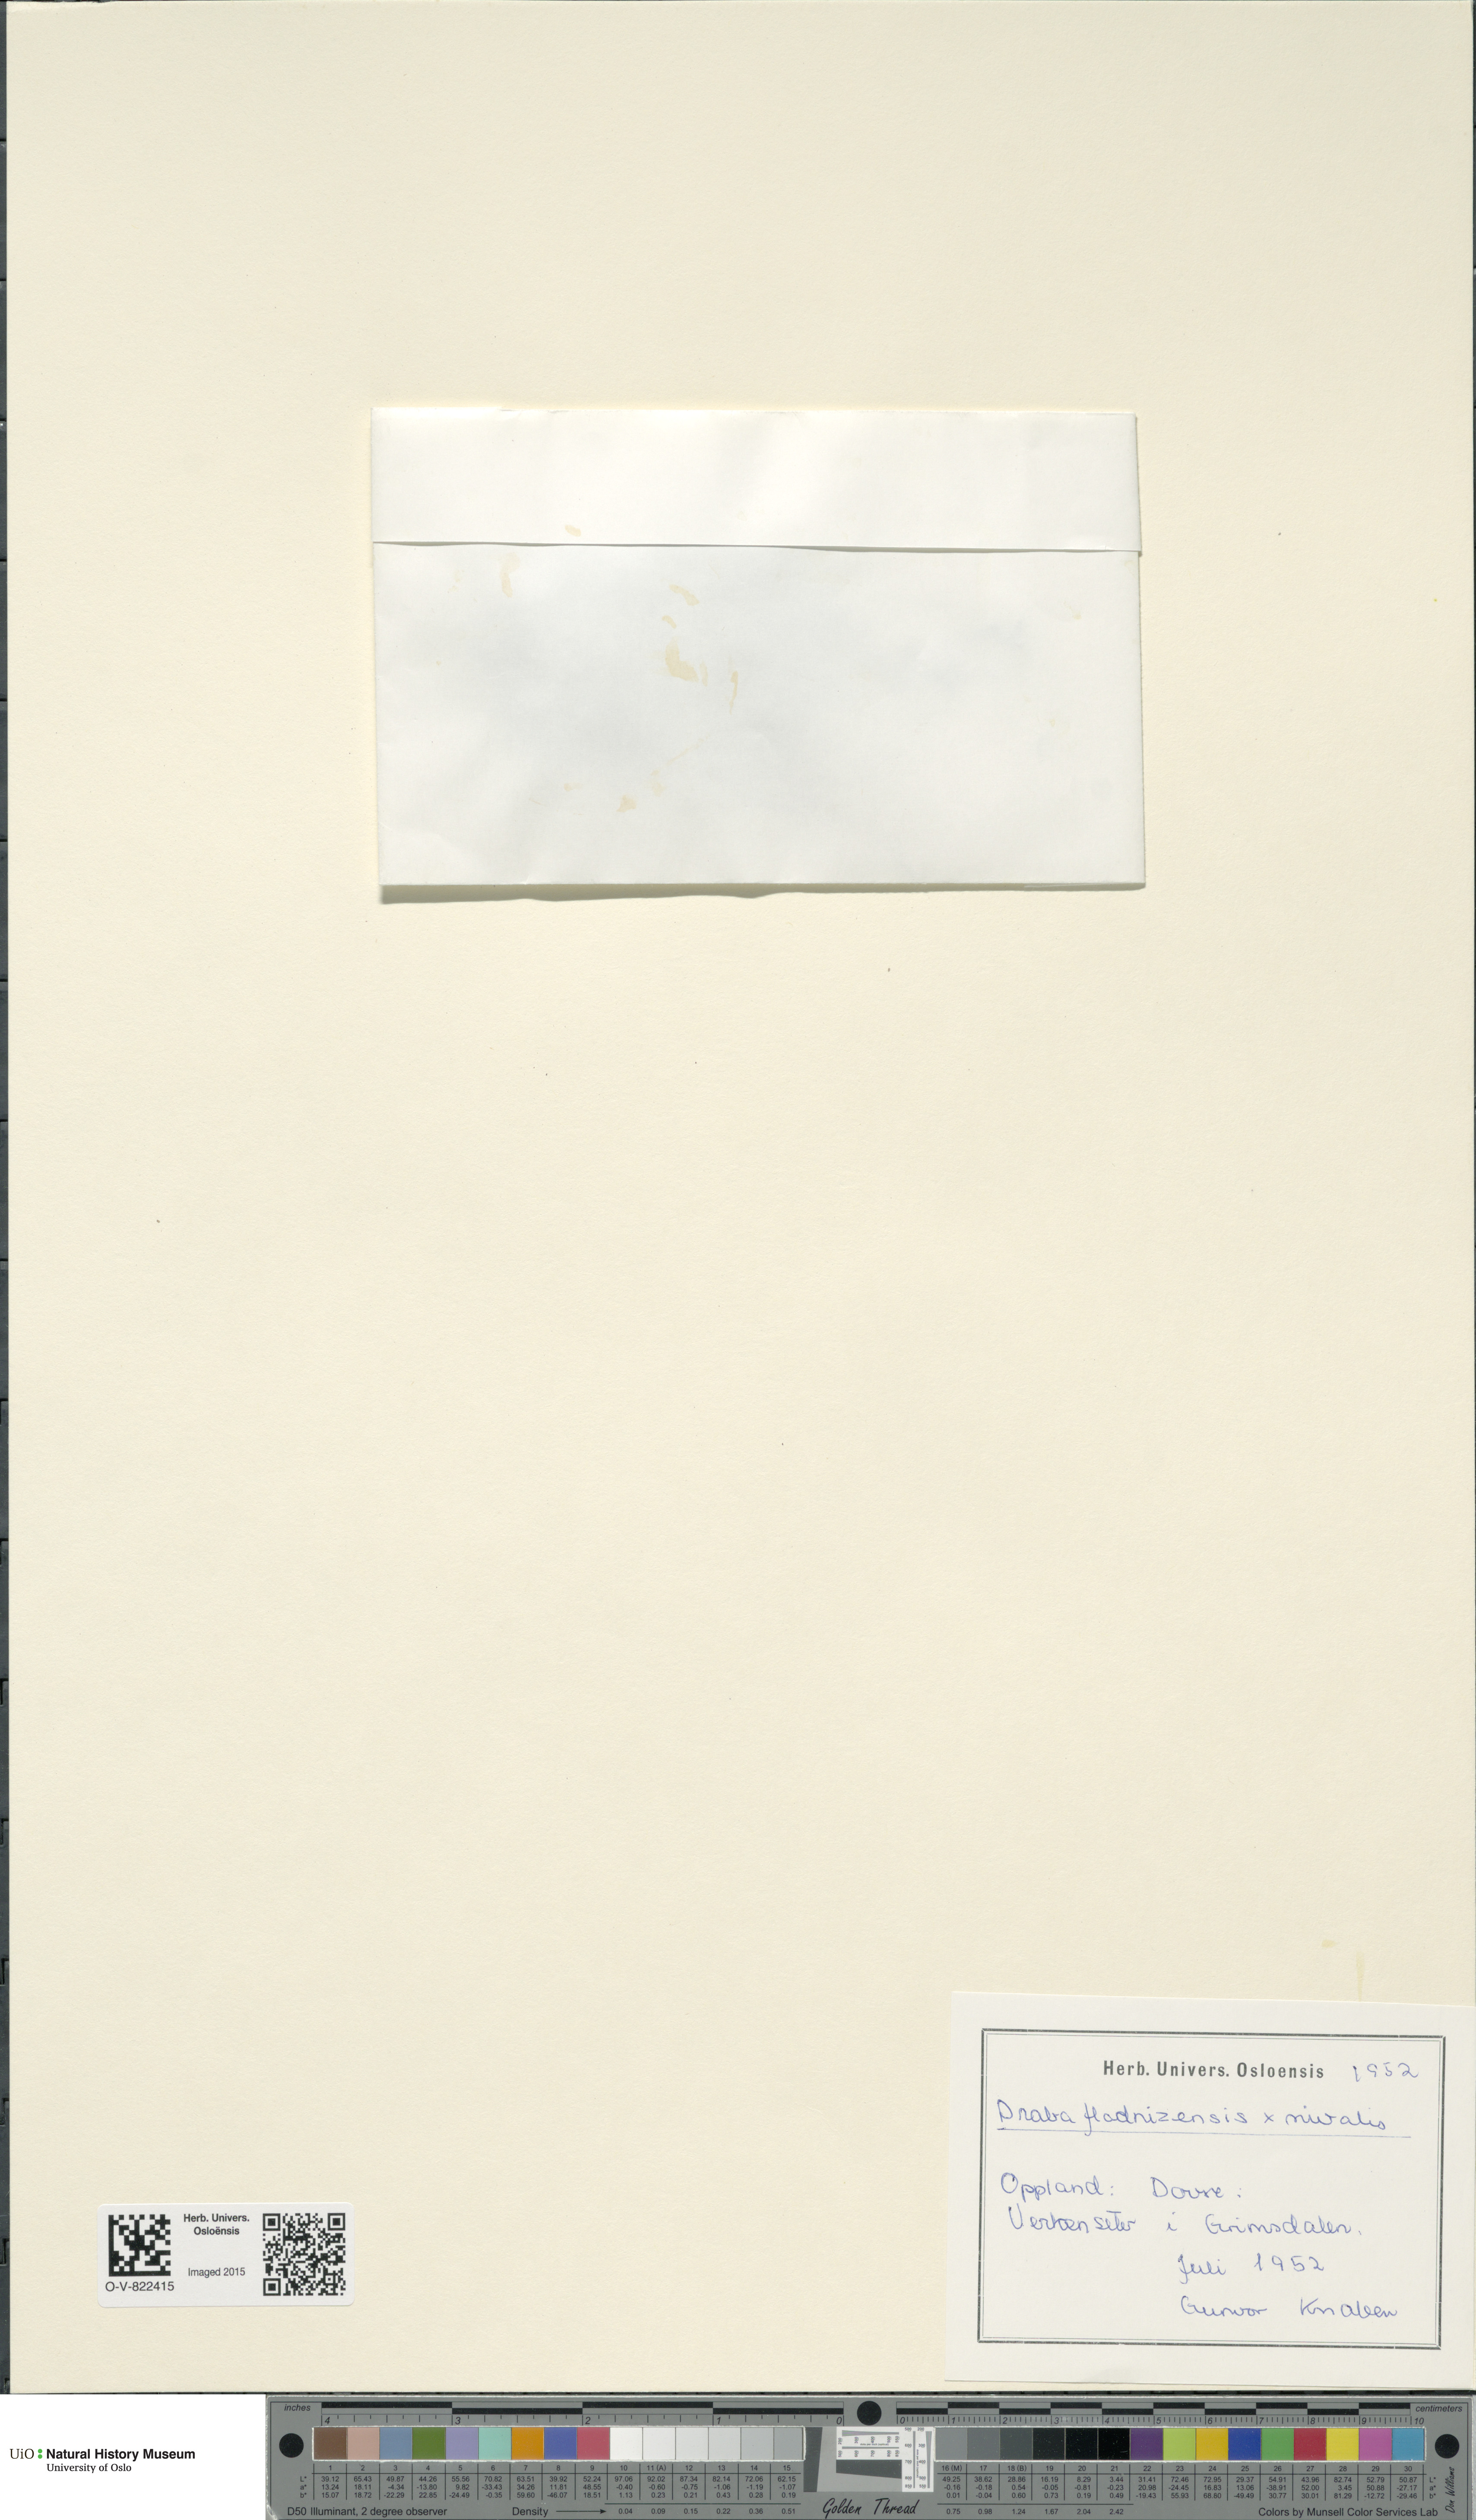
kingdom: Plantae
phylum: Tracheophyta
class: Magnoliopsida
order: Brassicales
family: Brassicaceae
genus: Draba
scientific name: Draba
